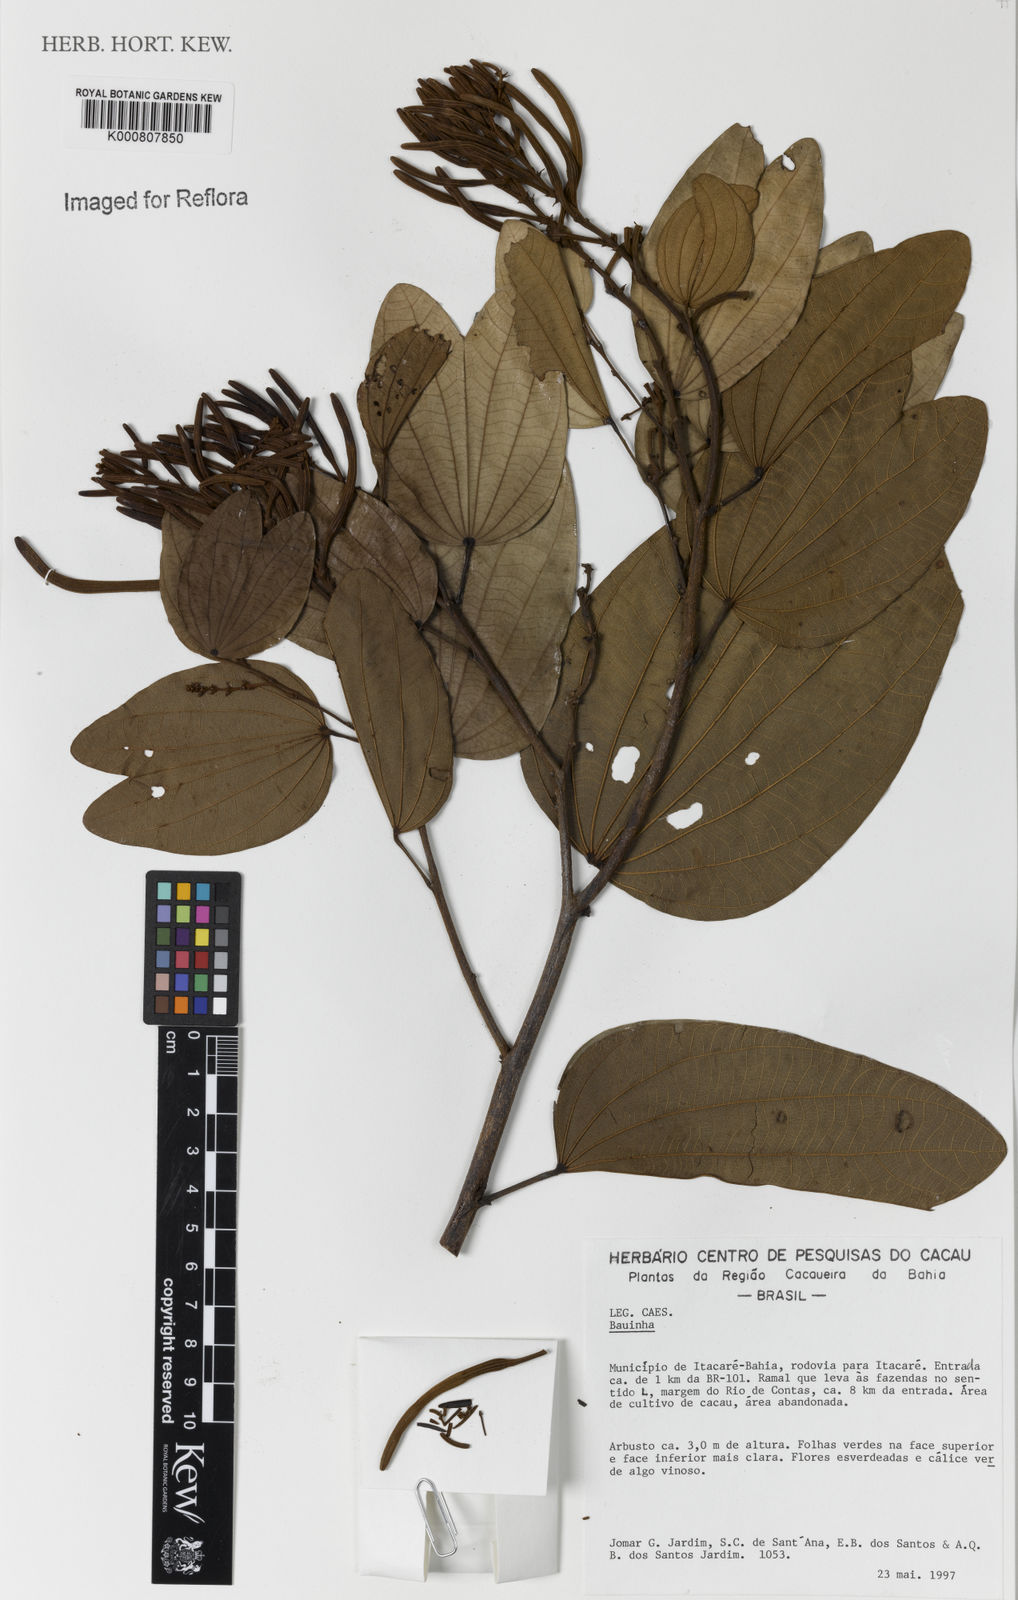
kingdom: Plantae
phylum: Tracheophyta
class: Magnoliopsida
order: Fabales
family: Fabaceae
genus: Bauhinia
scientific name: Bauhinia
